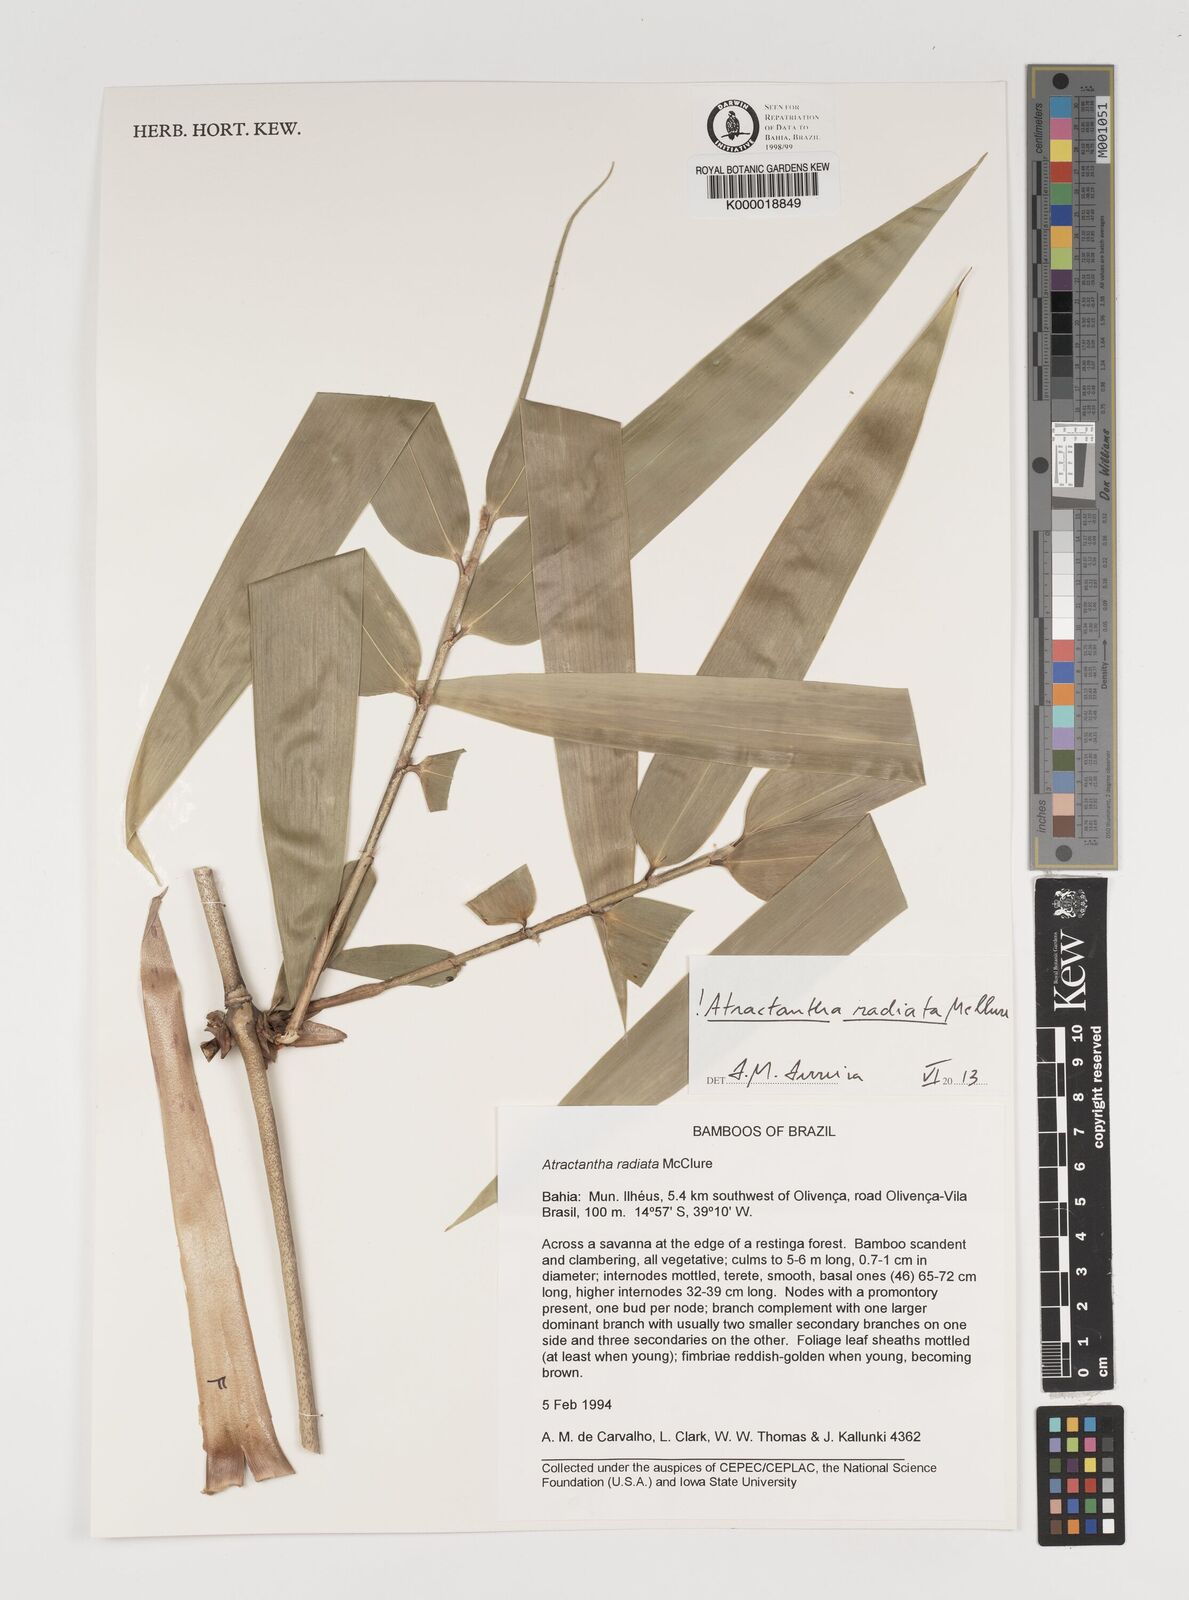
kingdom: Plantae
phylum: Tracheophyta
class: Liliopsida
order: Poales
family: Poaceae
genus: Atractantha
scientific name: Atractantha radiata
